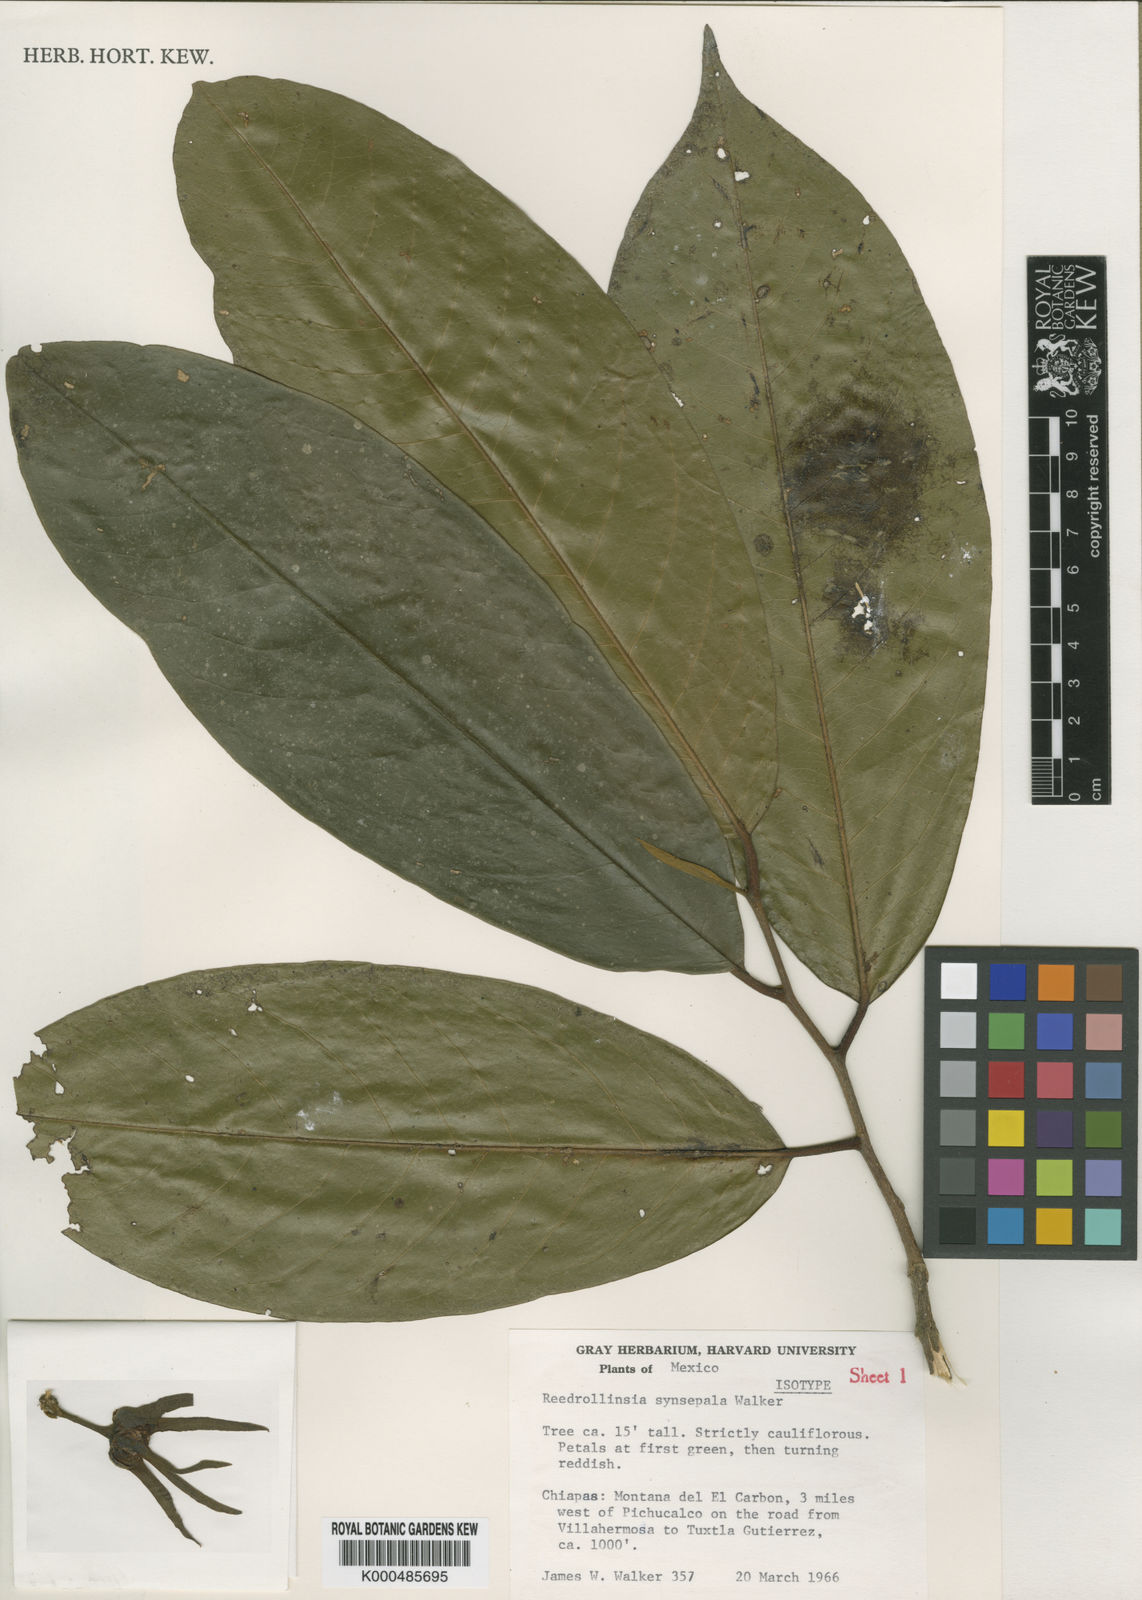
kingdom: Plantae
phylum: Tracheophyta
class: Magnoliopsida
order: Magnoliales
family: Annonaceae
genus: Stenanona
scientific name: Stenanona
